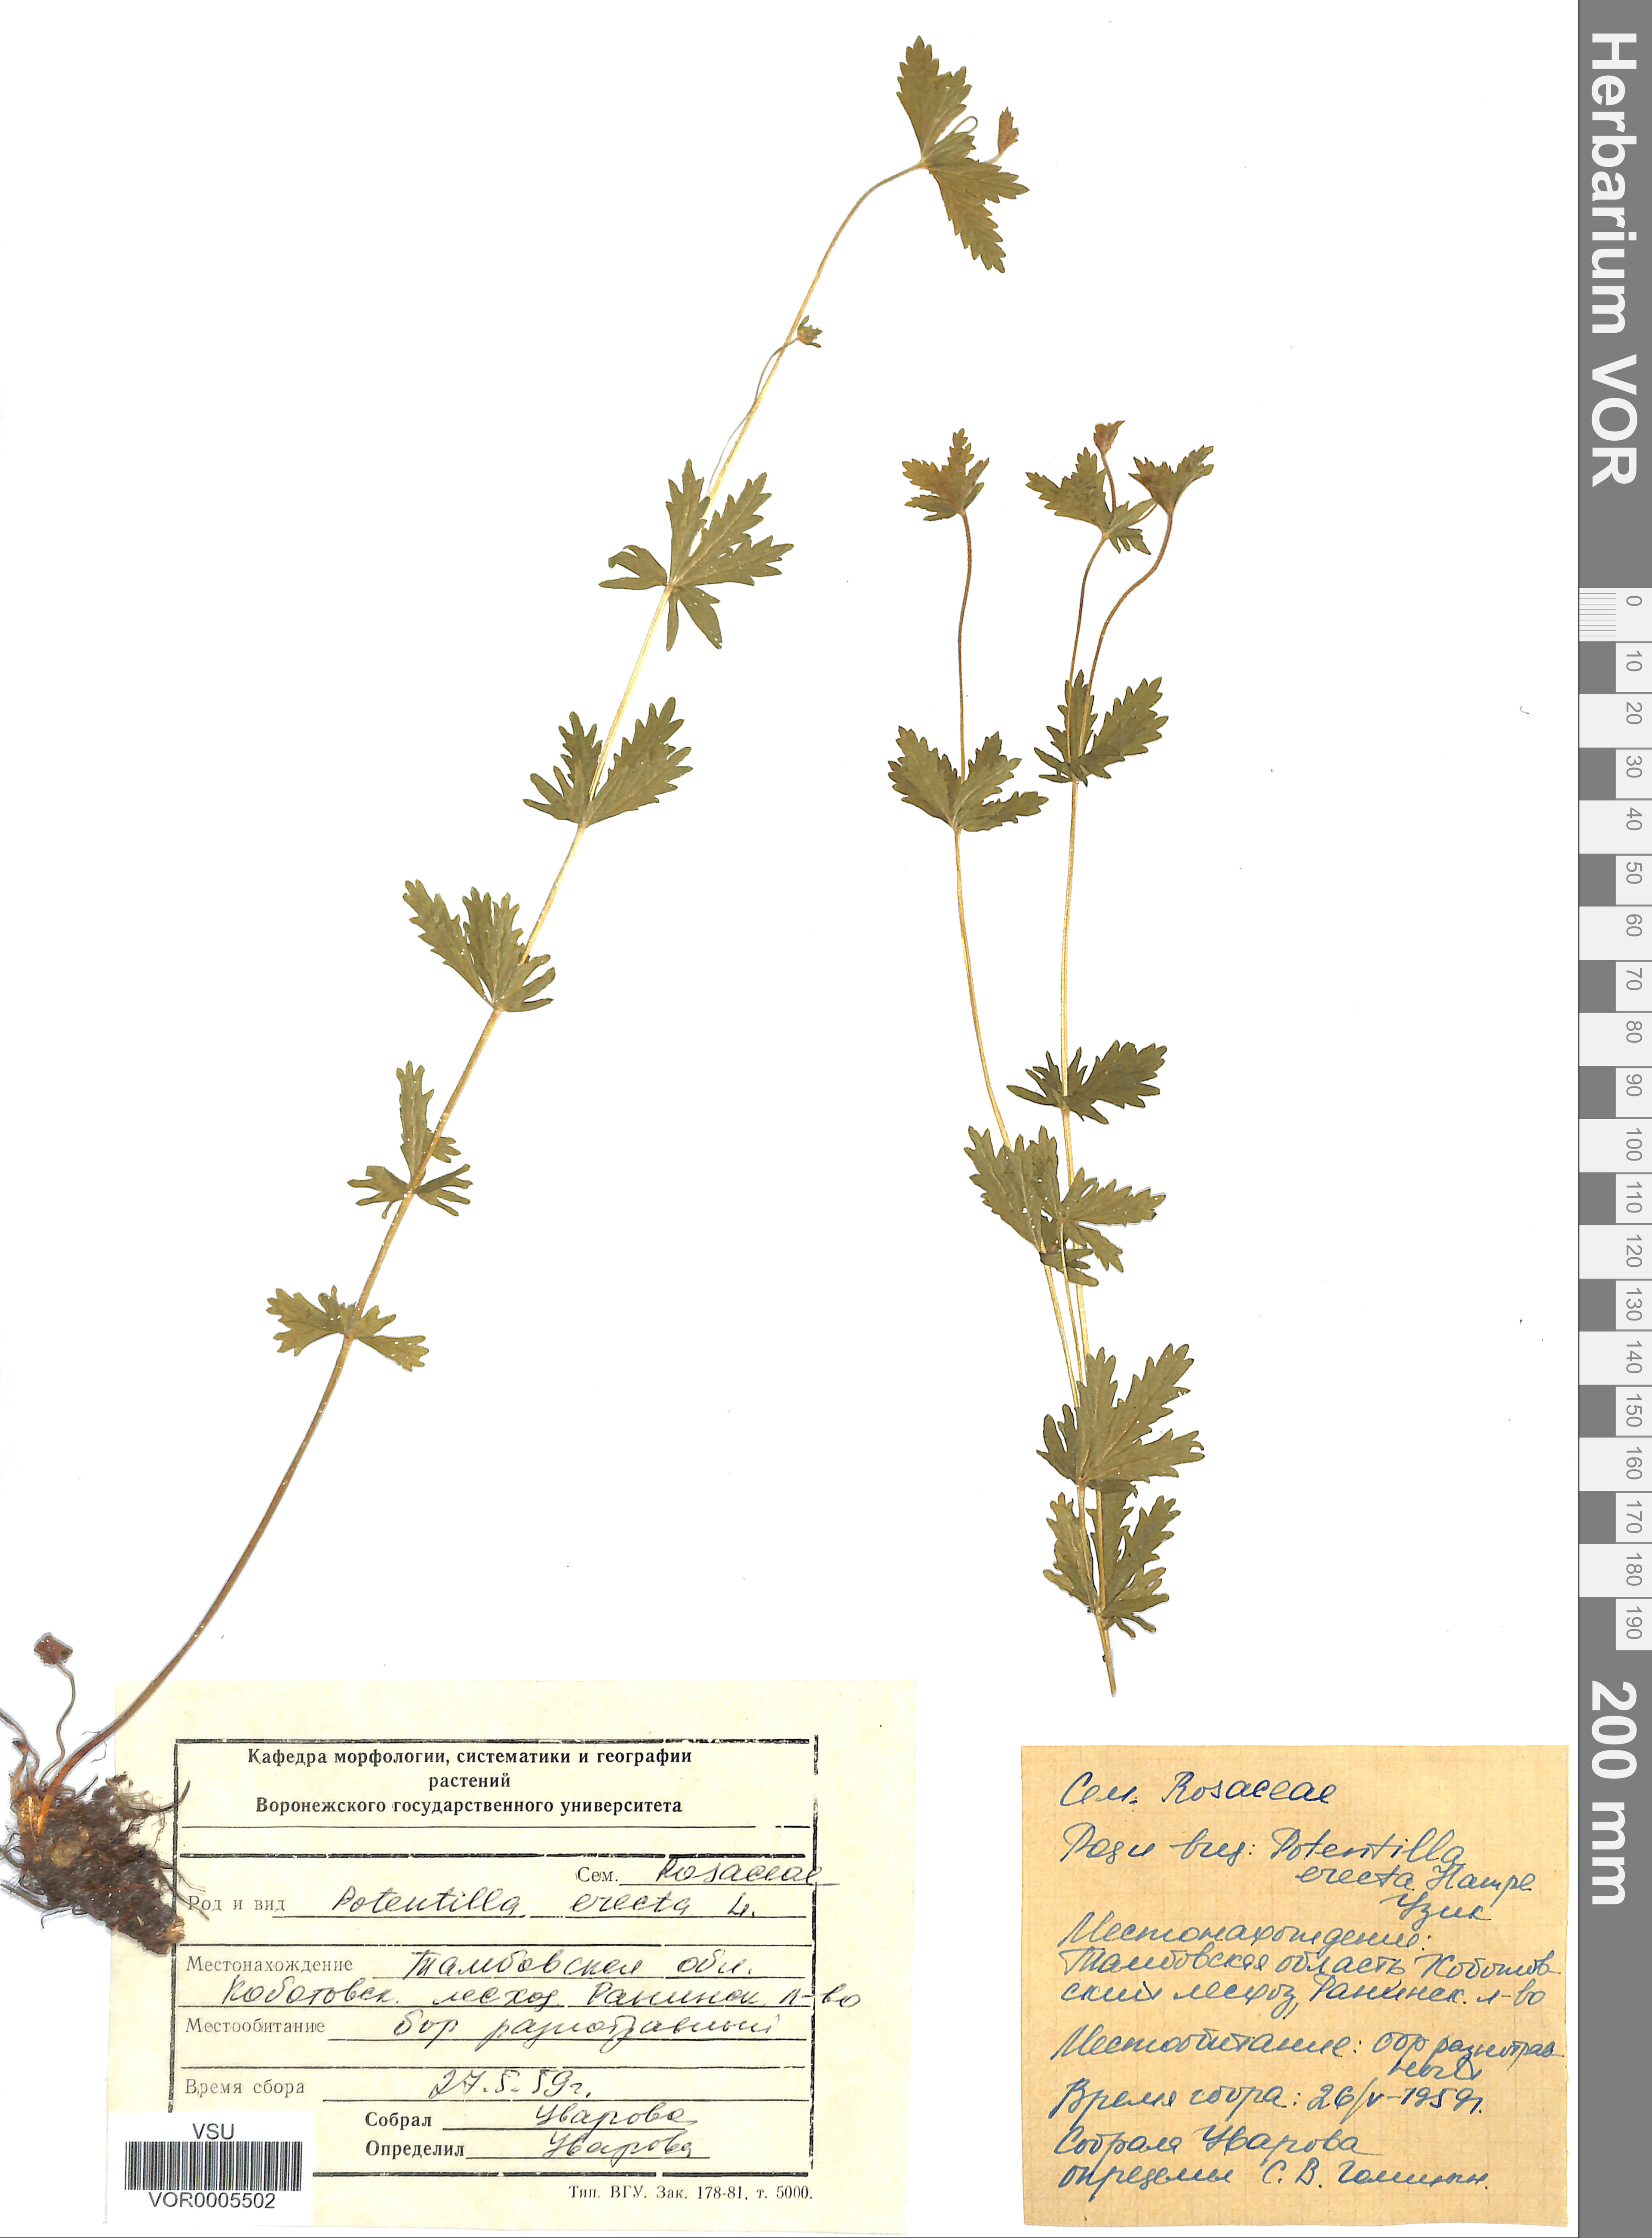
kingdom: Plantae
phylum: Tracheophyta
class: Magnoliopsida
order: Rosales
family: Rosaceae
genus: Potentilla
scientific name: Potentilla erecta
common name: Tormentil
